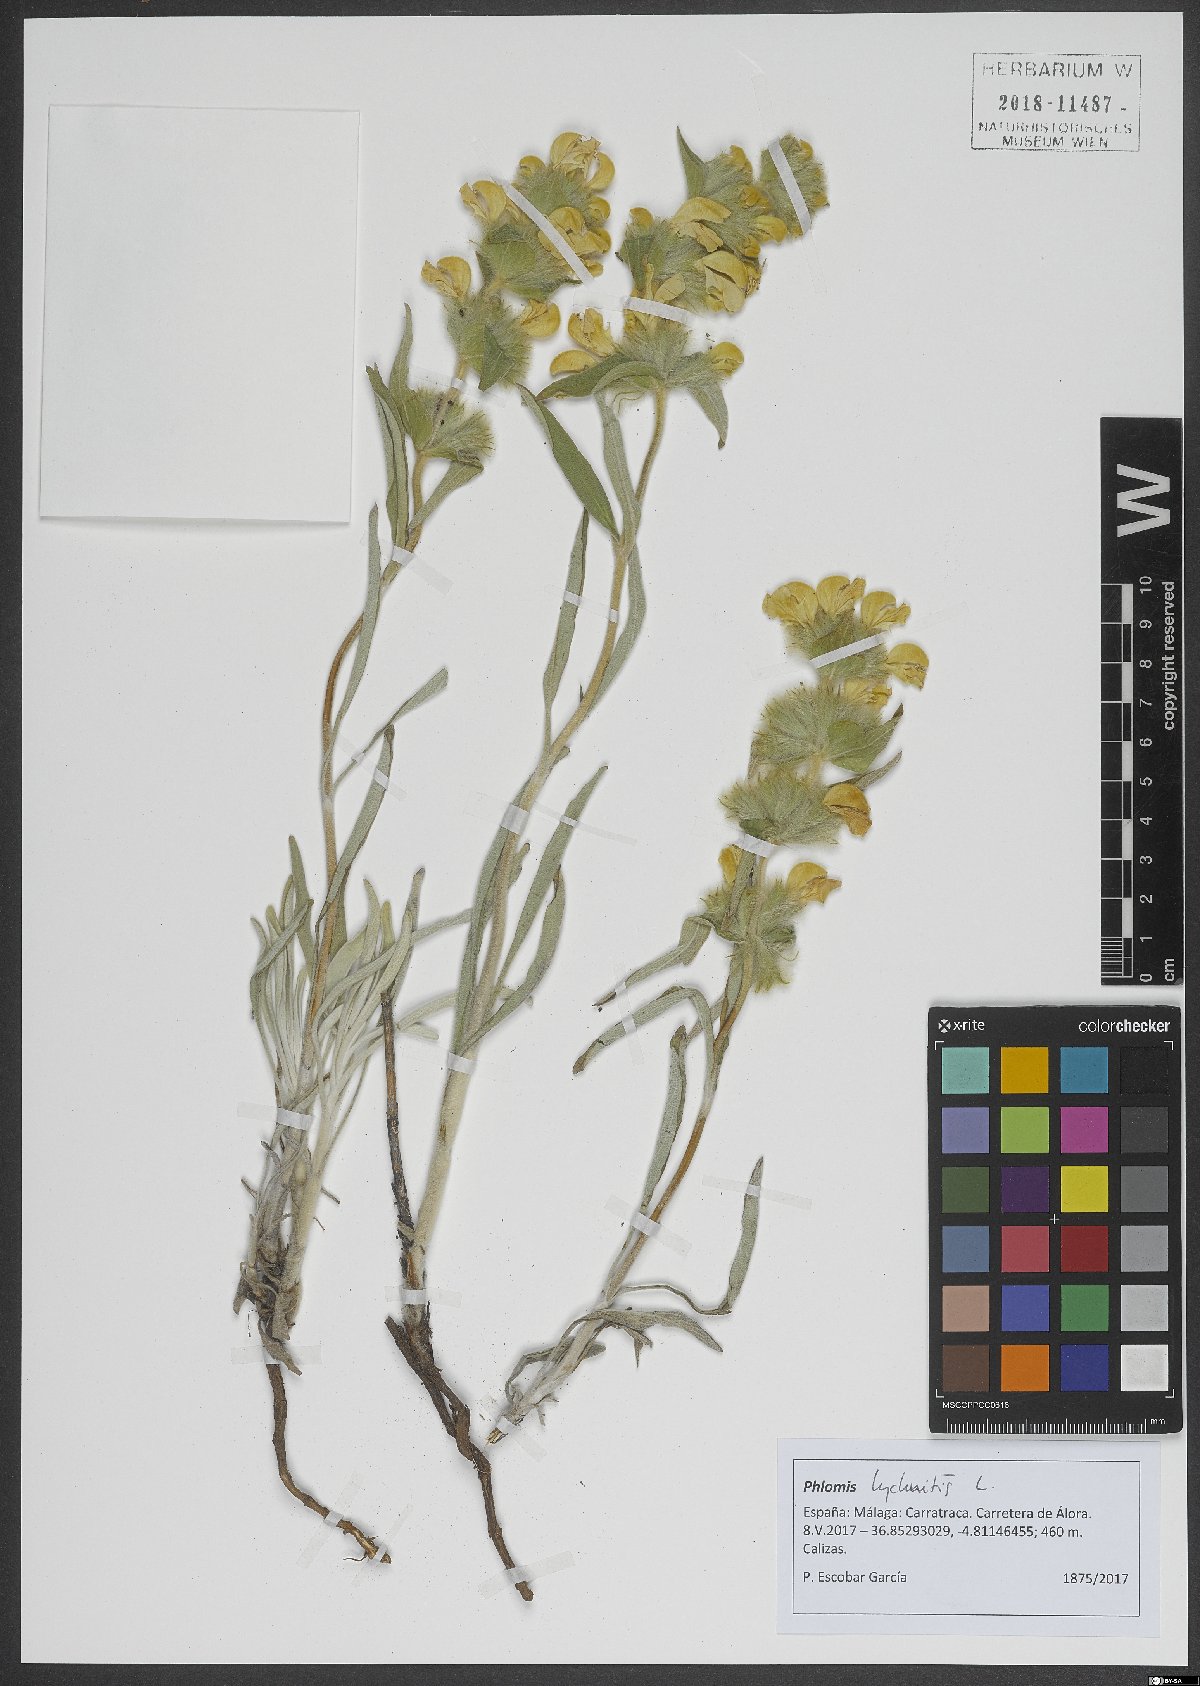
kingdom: Plantae
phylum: Tracheophyta
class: Magnoliopsida
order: Lamiales
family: Lamiaceae
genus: Phlomis
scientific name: Phlomis lychnitis
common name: Lampwickplant
